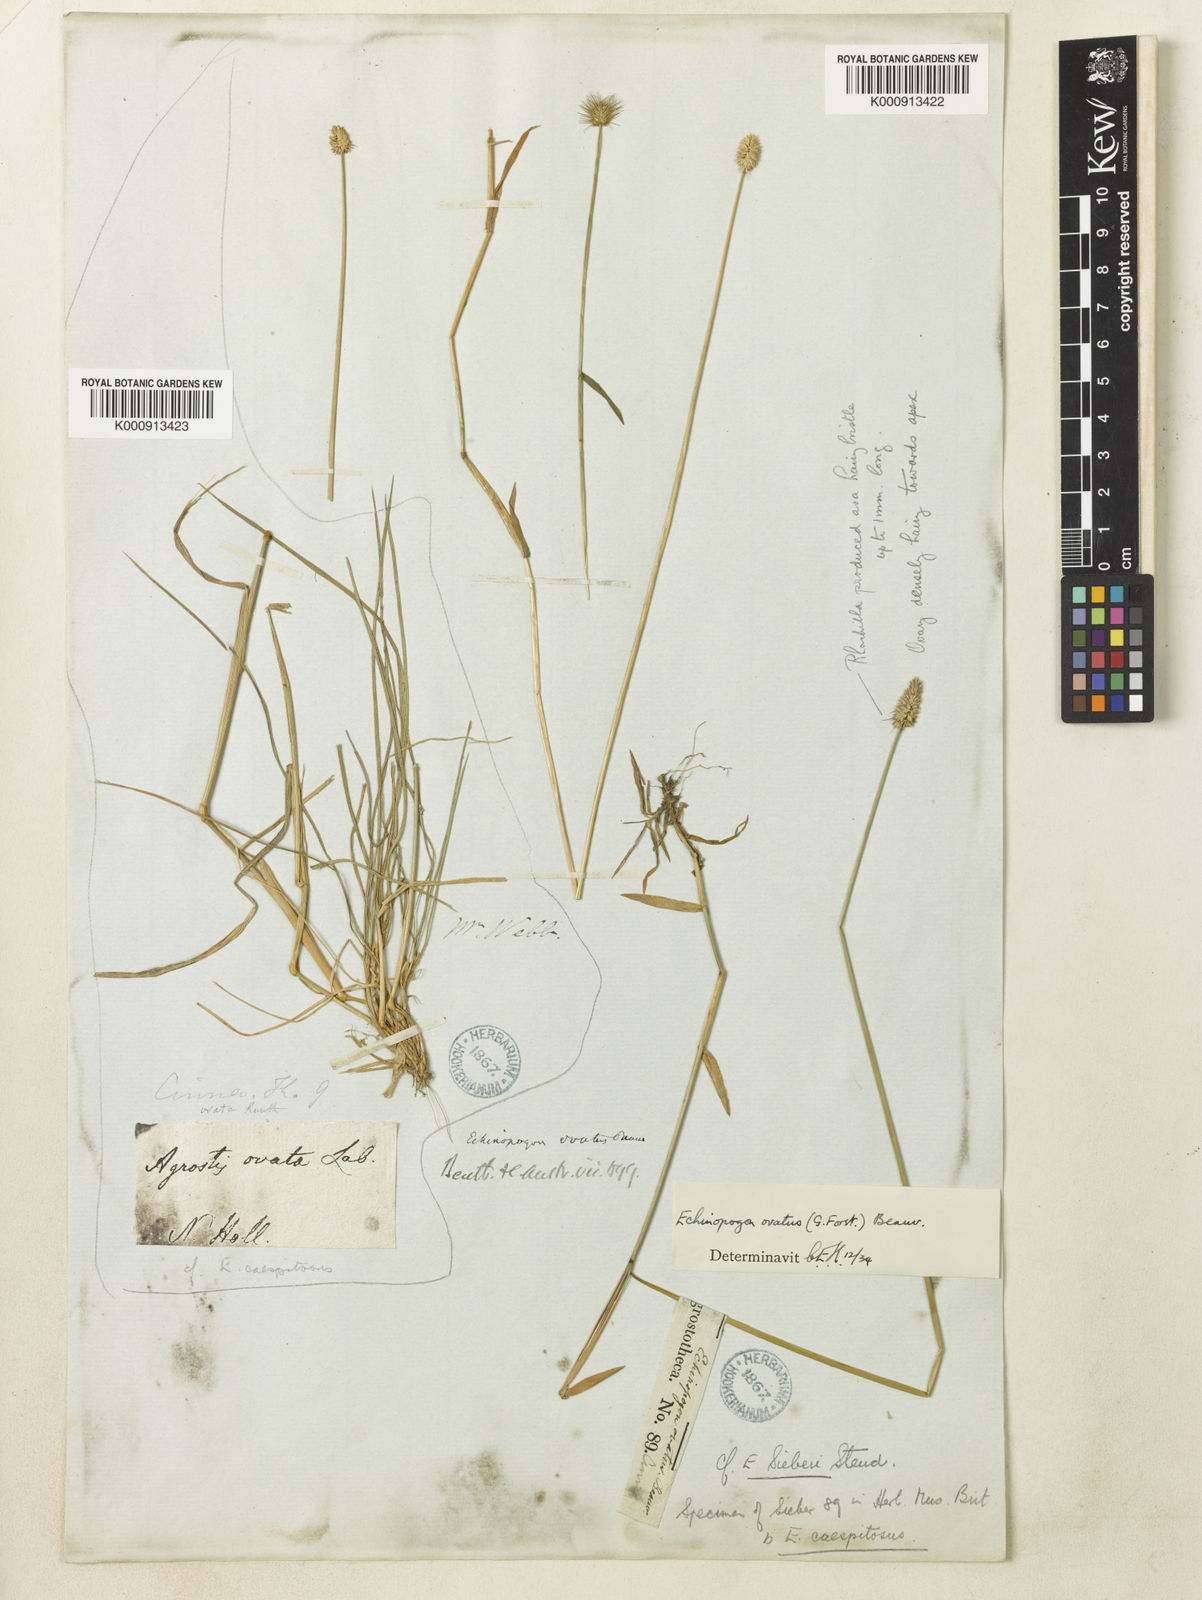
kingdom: Plantae
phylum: Tracheophyta
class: Liliopsida
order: Poales
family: Poaceae
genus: Echinopogon
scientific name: Echinopogon ovatus
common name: Hedgehog-grass
